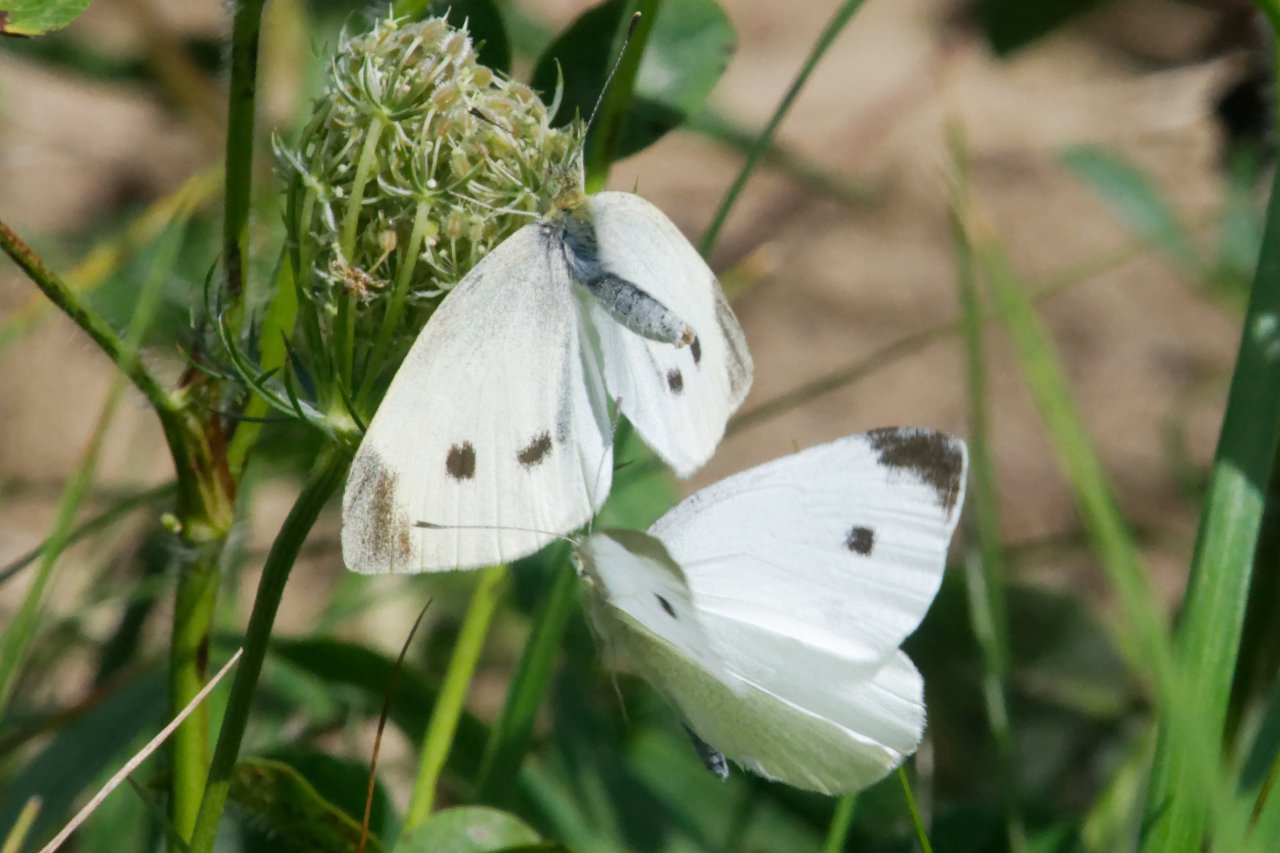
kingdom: Animalia
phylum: Arthropoda
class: Insecta
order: Lepidoptera
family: Pieridae
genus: Pieris
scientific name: Pieris rapae
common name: Cabbage White
